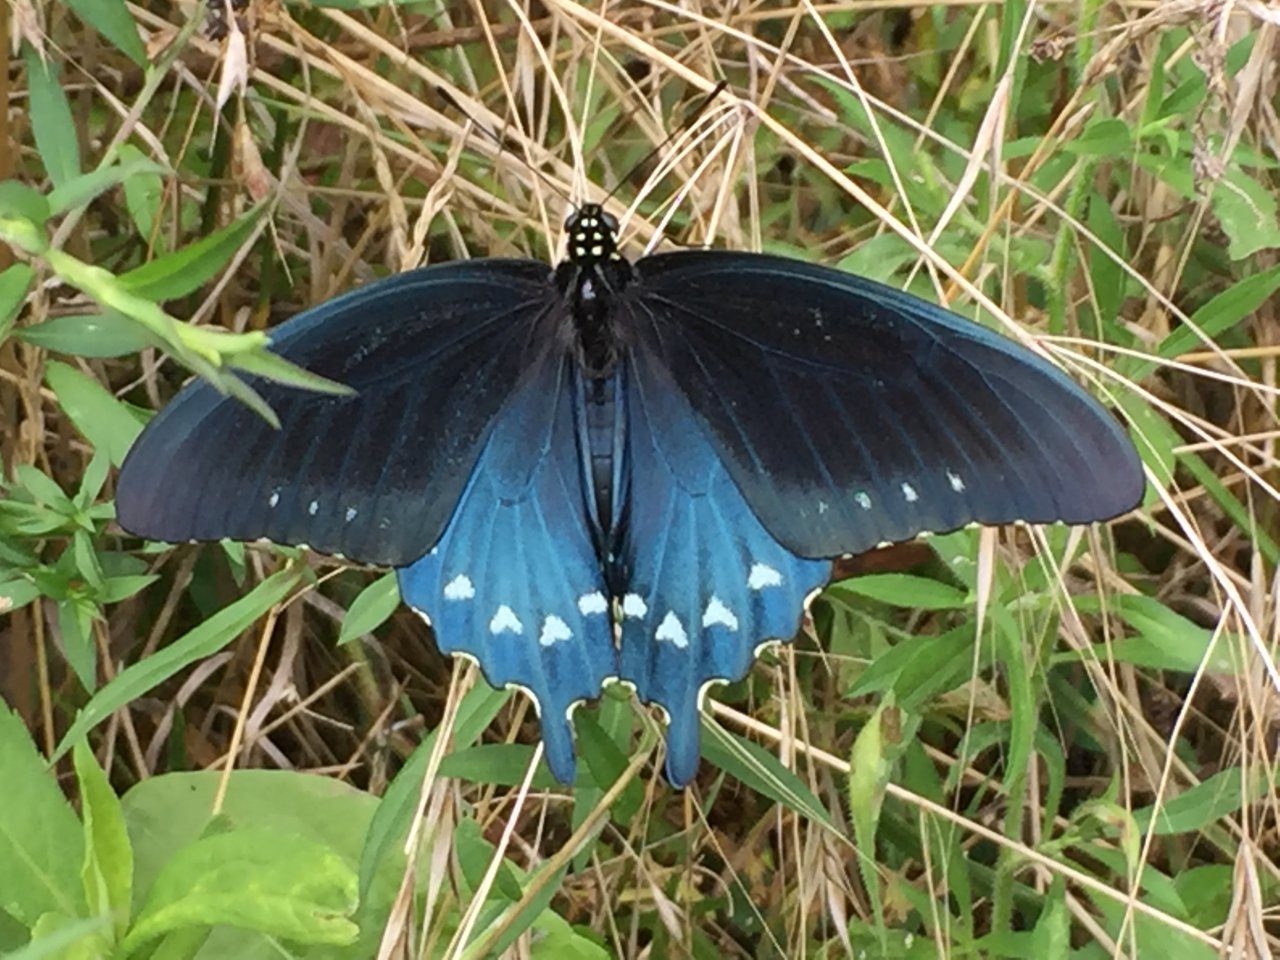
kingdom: Animalia
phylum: Arthropoda
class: Insecta
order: Lepidoptera
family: Papilionidae
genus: Battus
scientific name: Battus philenor
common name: Pipevine Swallowtail
